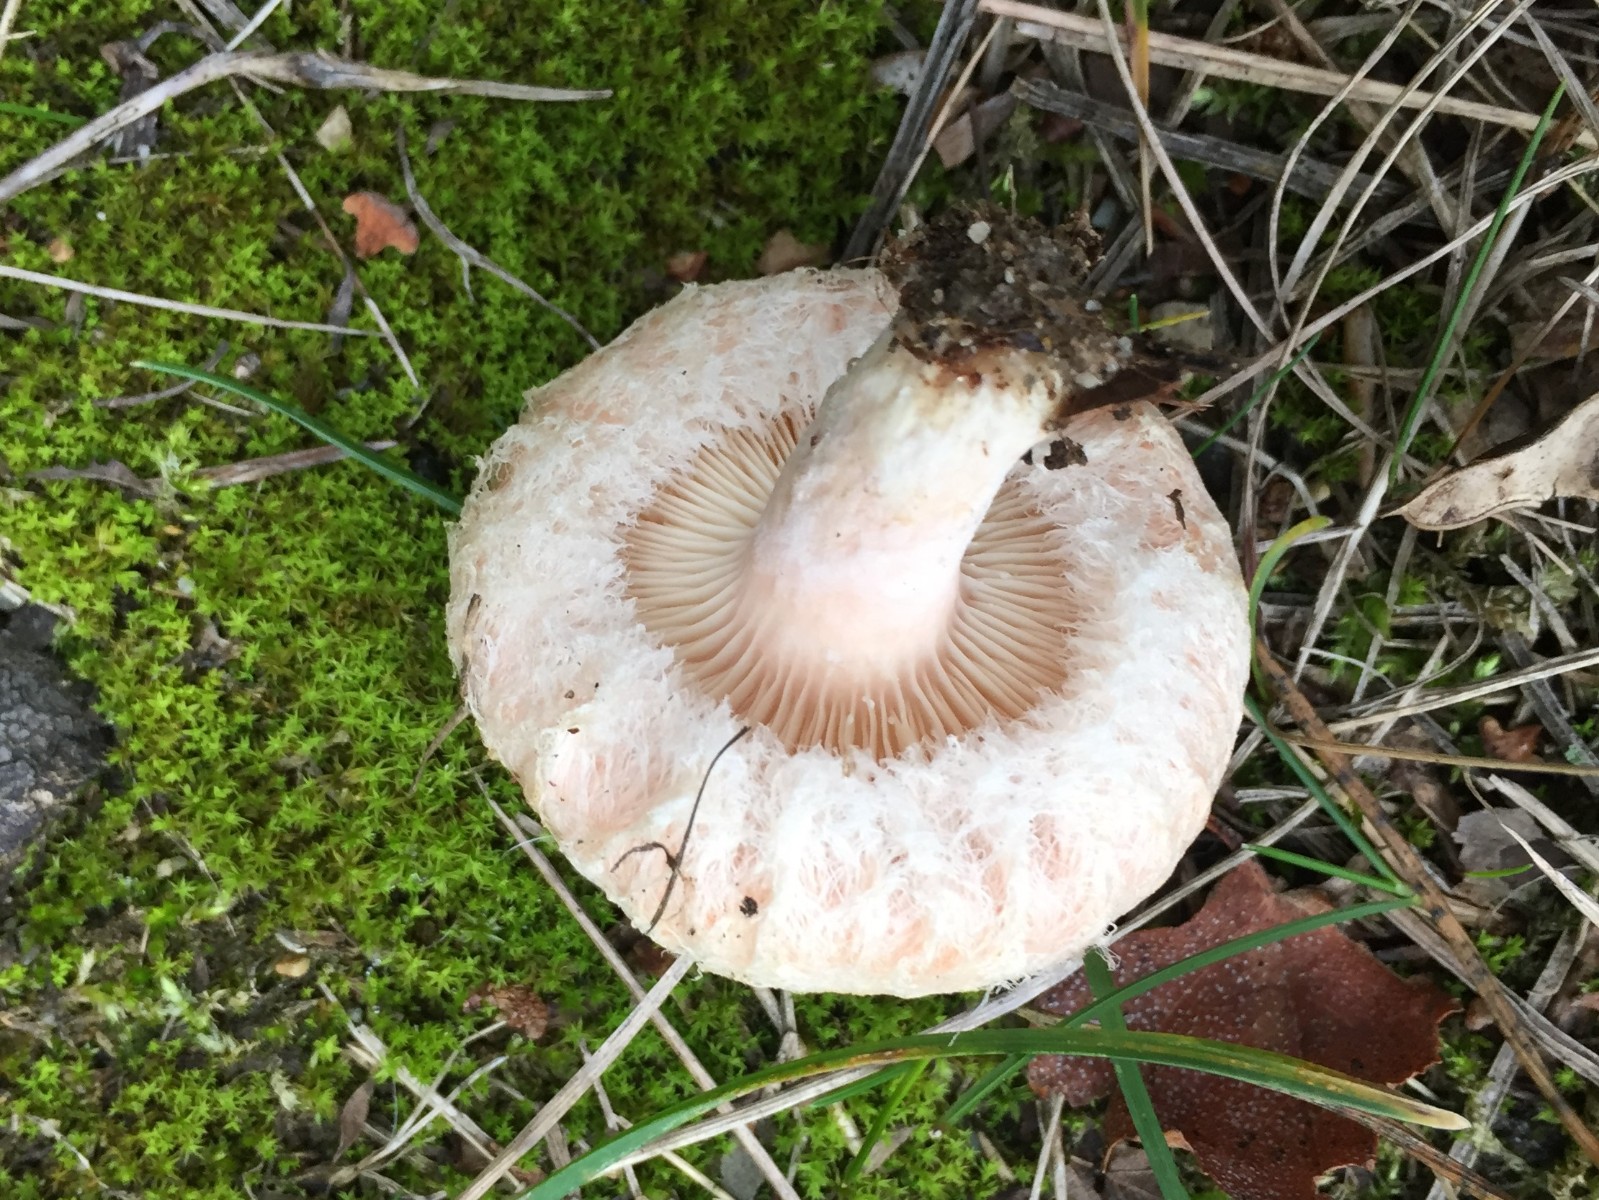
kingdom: Fungi
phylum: Basidiomycota
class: Agaricomycetes
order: Russulales
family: Russulaceae
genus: Lactarius
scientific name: Lactarius torminosus
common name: skægget mælkehat
